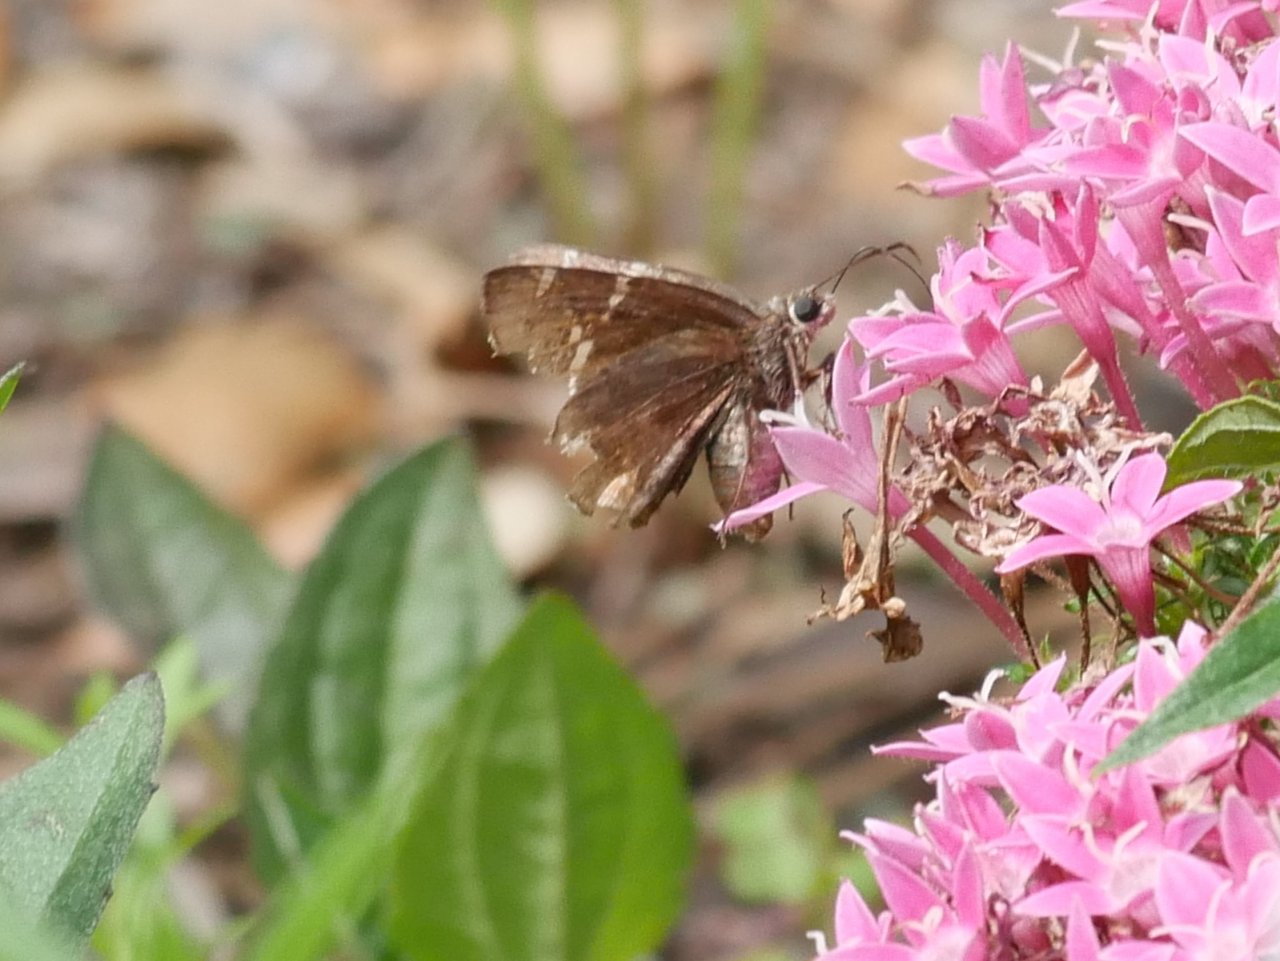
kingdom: Animalia
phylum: Arthropoda
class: Insecta
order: Lepidoptera
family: Hesperiidae
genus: Autochton
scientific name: Autochton
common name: Southern Cloudywing
